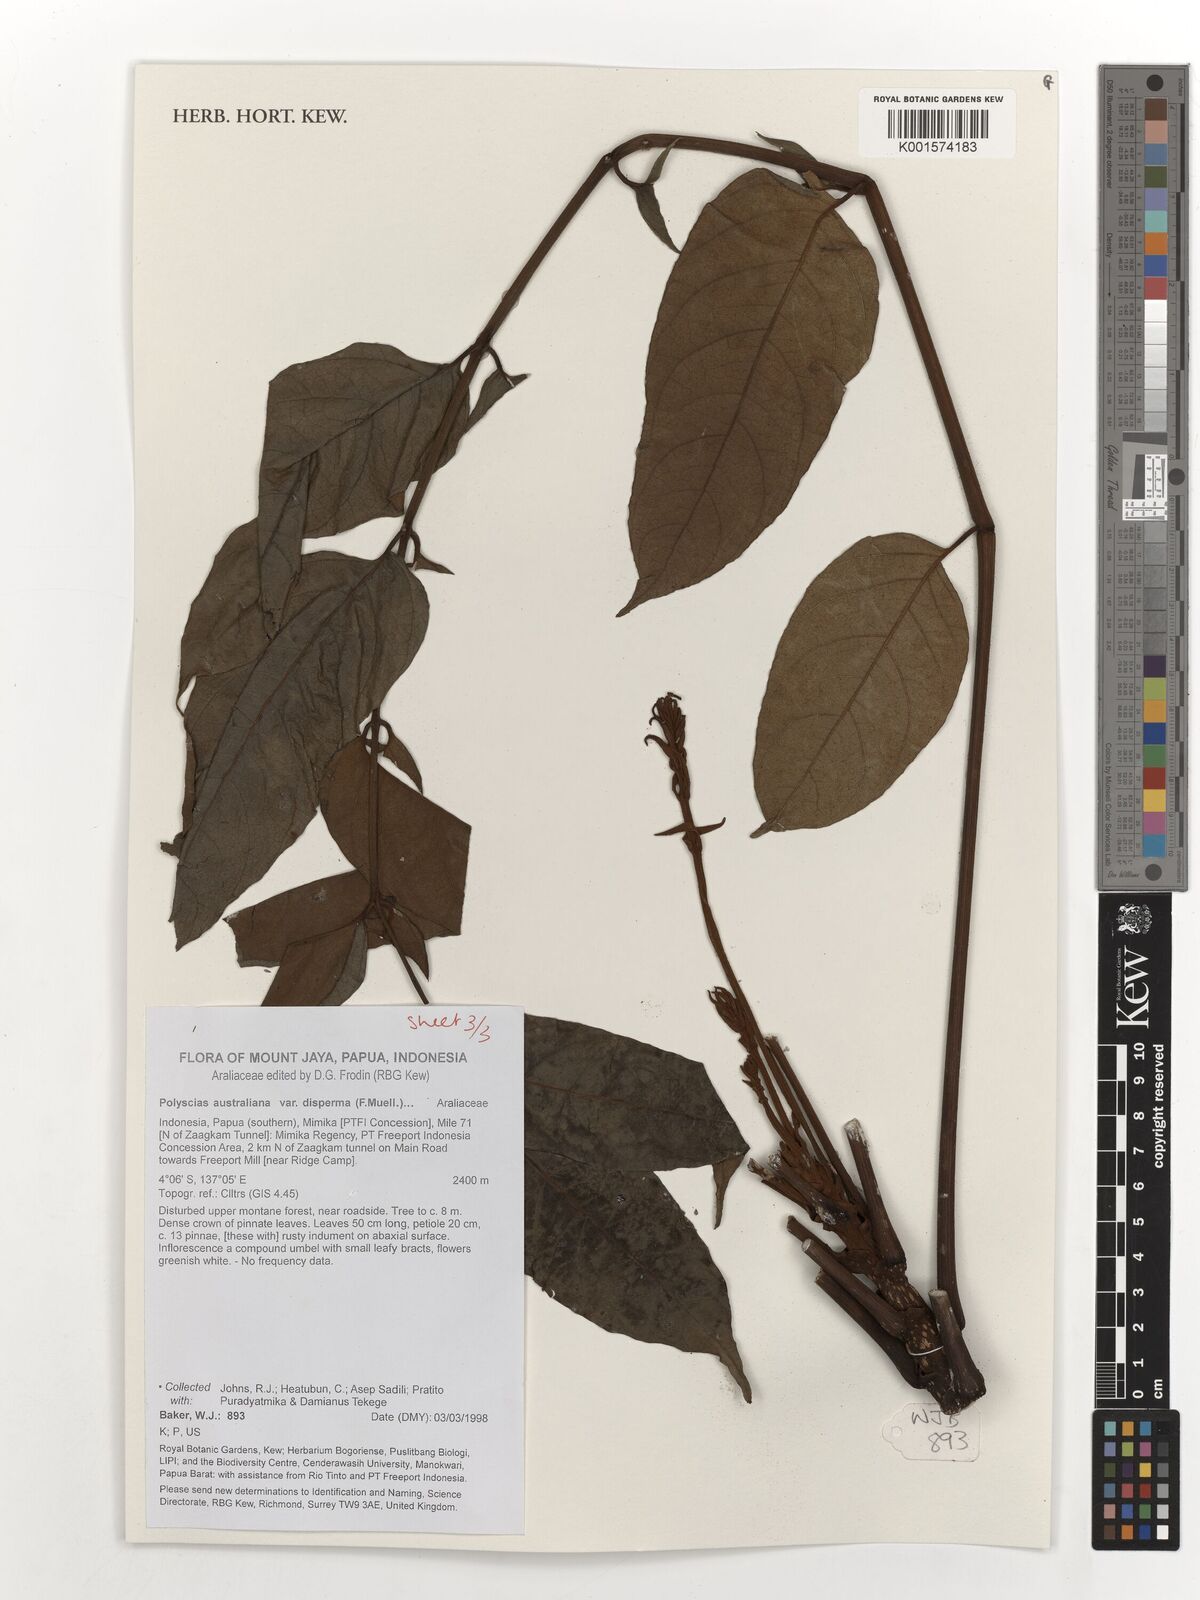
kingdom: Plantae
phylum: Tracheophyta
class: Magnoliopsida
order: Apiales
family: Araliaceae
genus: Polyscias
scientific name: Polyscias australiana
